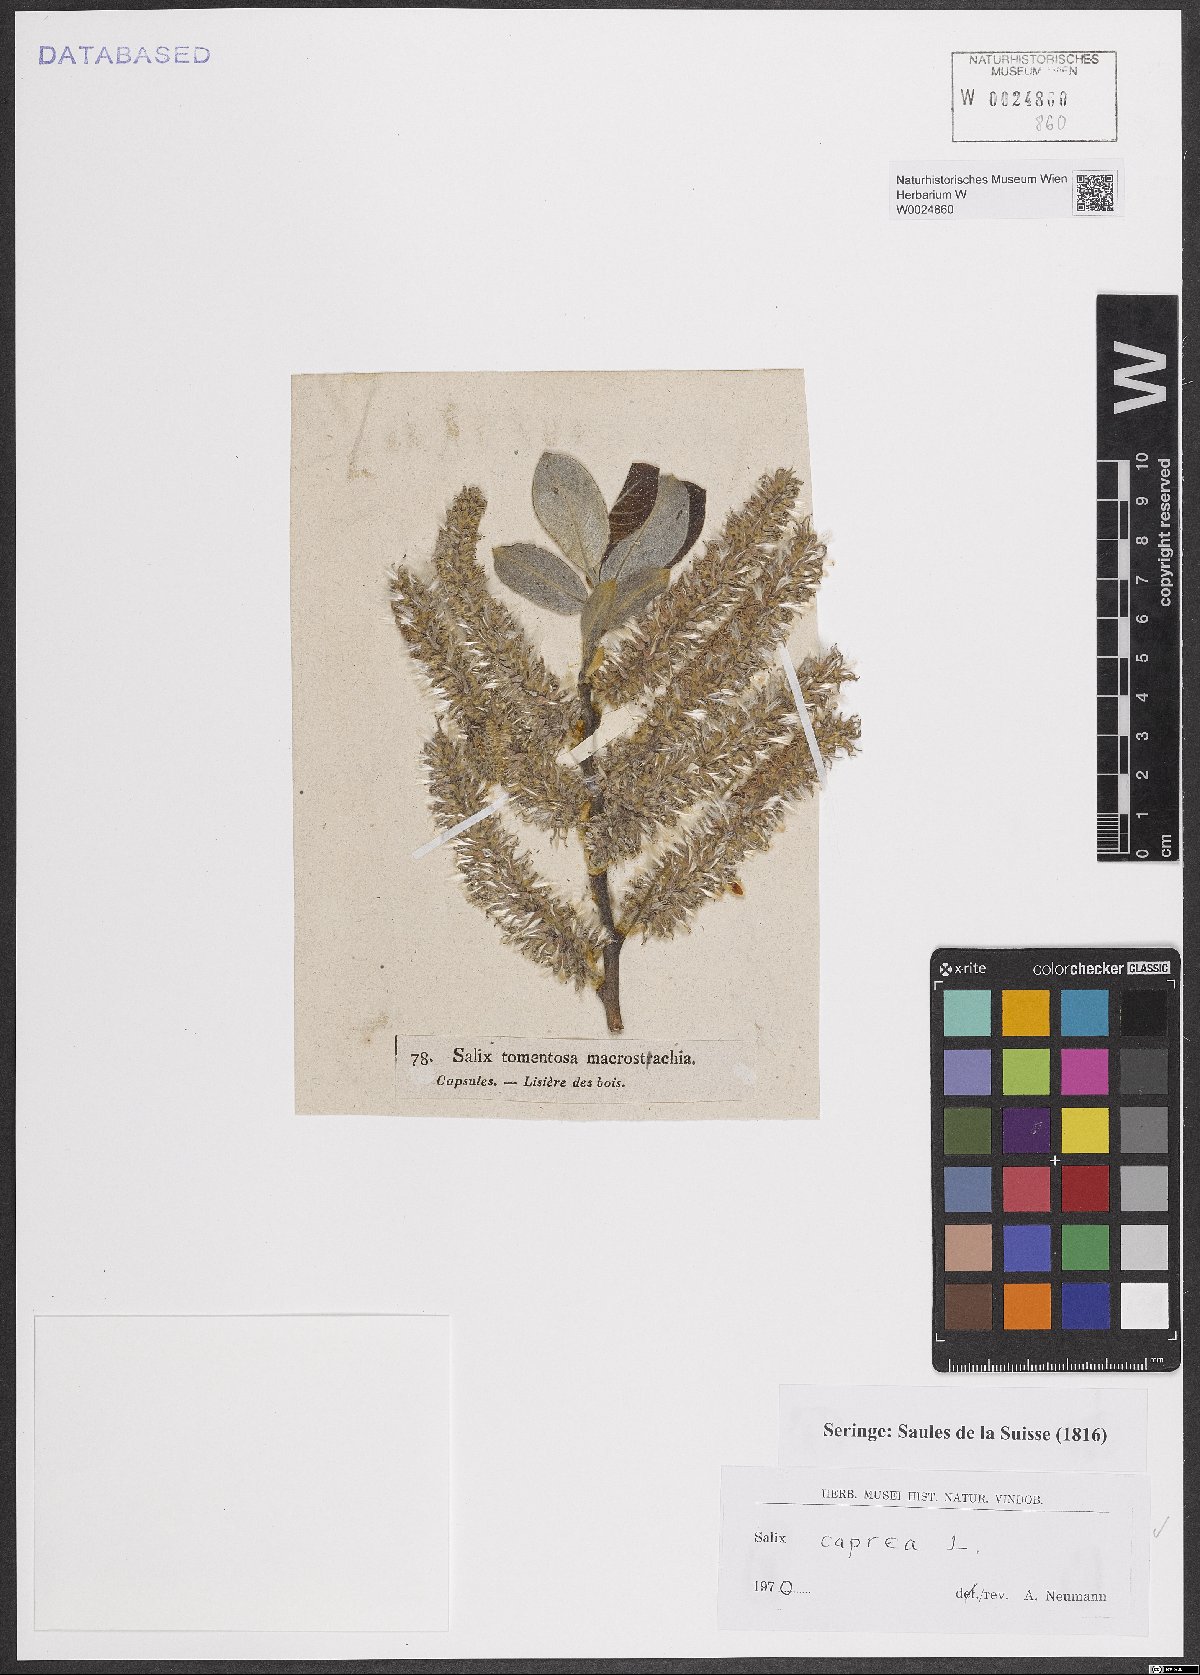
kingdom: Plantae
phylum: Tracheophyta
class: Magnoliopsida
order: Malpighiales
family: Salicaceae
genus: Salix
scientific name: Salix caprea
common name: Goat willow
